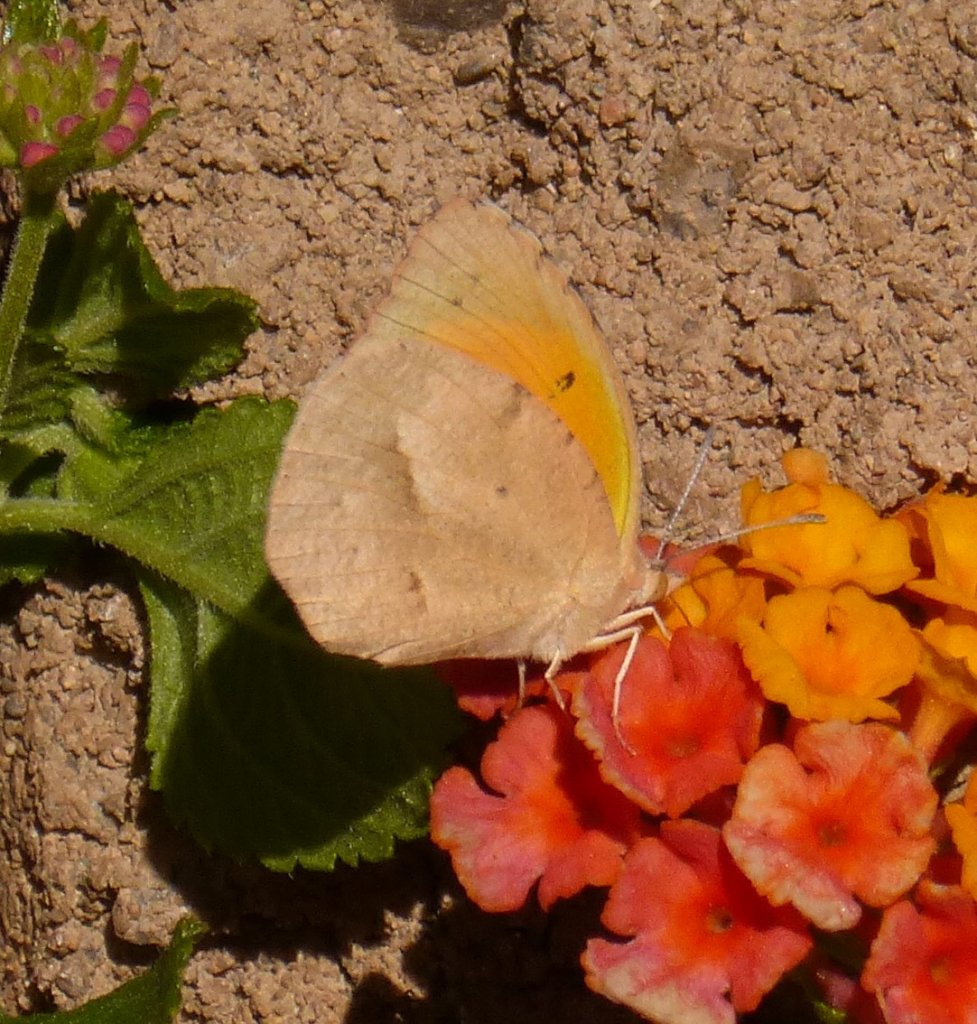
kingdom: Animalia
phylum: Arthropoda
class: Insecta
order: Lepidoptera
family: Pieridae
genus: Abaeis
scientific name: Abaeis nicippe
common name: Sleepy Orange
